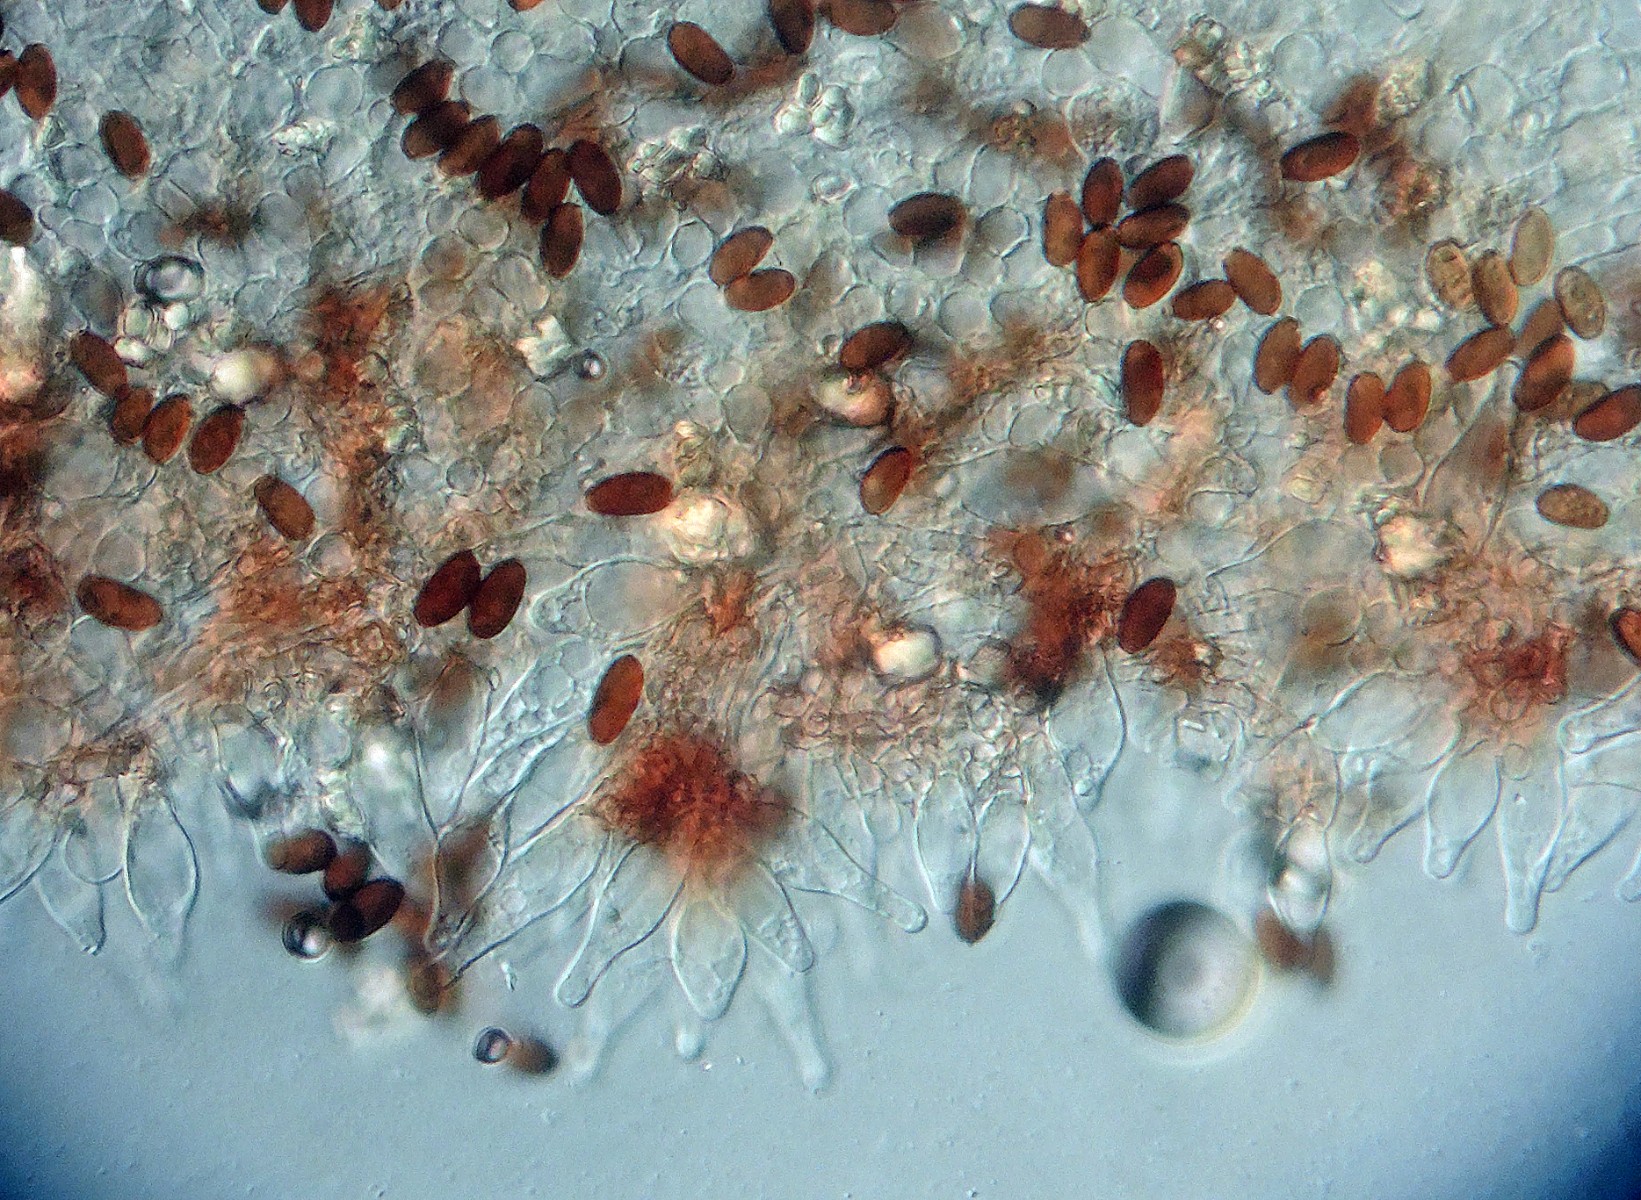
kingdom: Fungi
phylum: Basidiomycota
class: Agaricomycetes
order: Agaricales
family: Psathyrellaceae
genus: Psathyrella
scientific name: Psathyrella microrhiza
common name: rod-mørkhat
